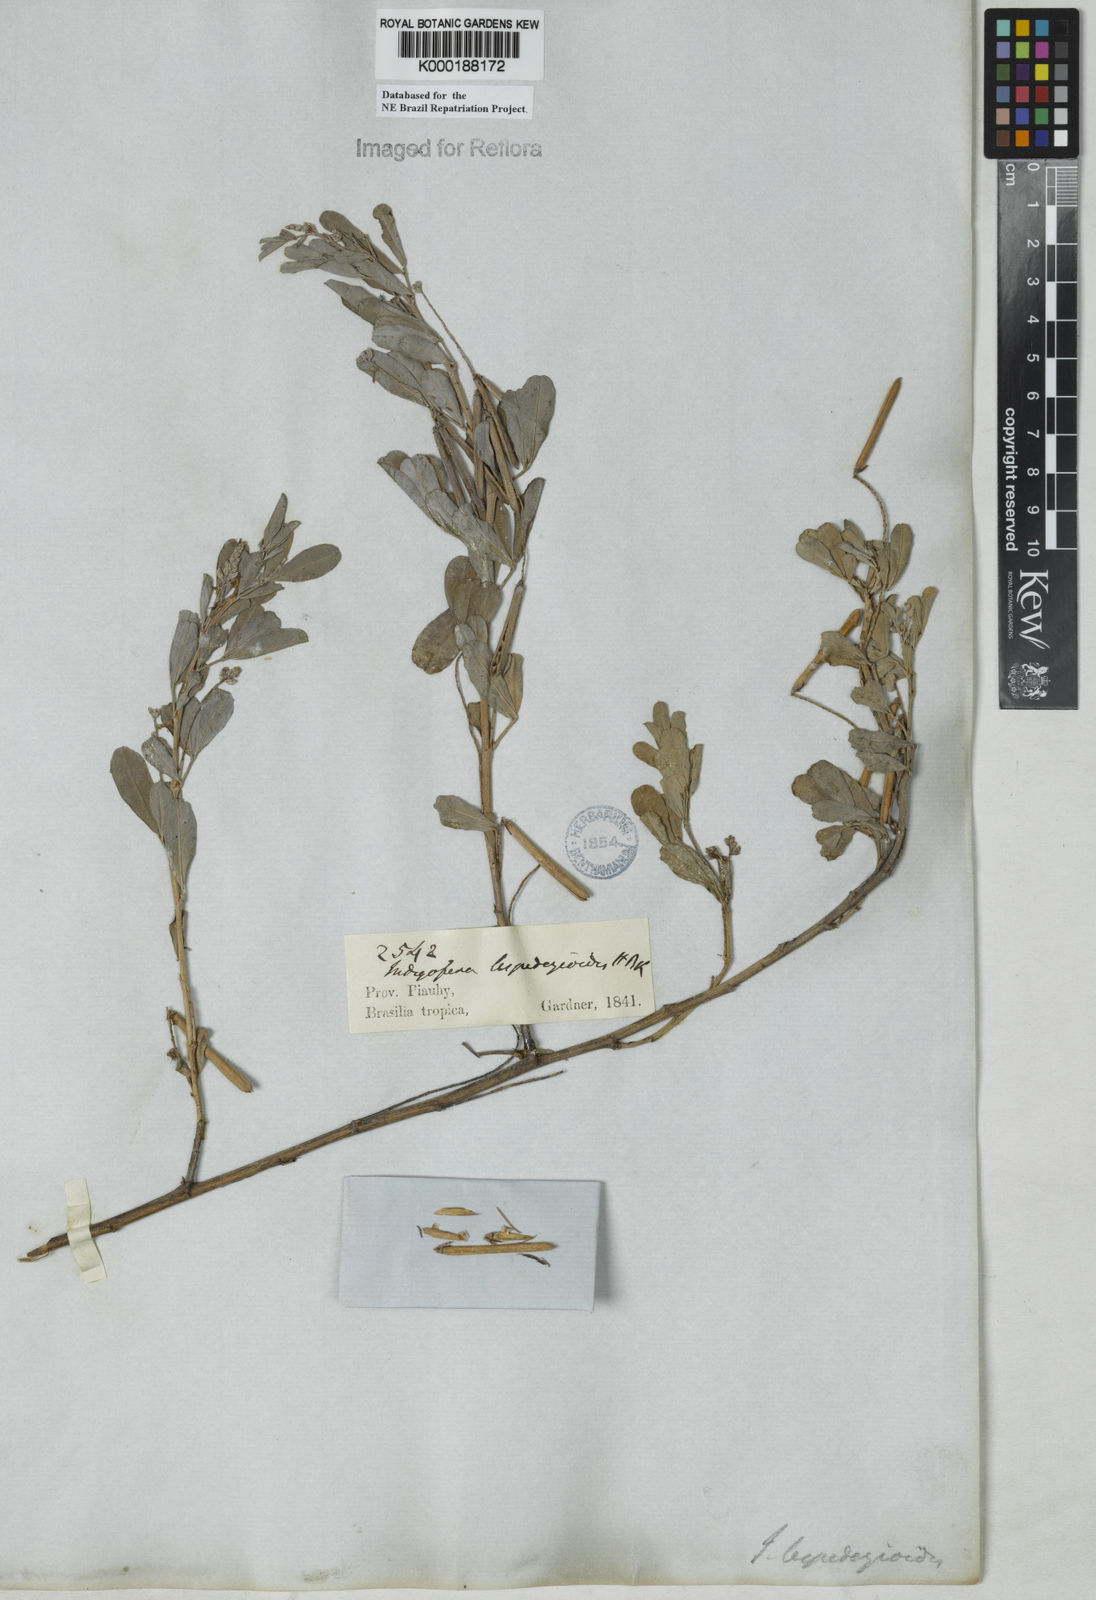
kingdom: Plantae
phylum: Tracheophyta
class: Magnoliopsida
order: Fabales
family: Fabaceae
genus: Indigofera
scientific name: Indigofera lespedezioides
